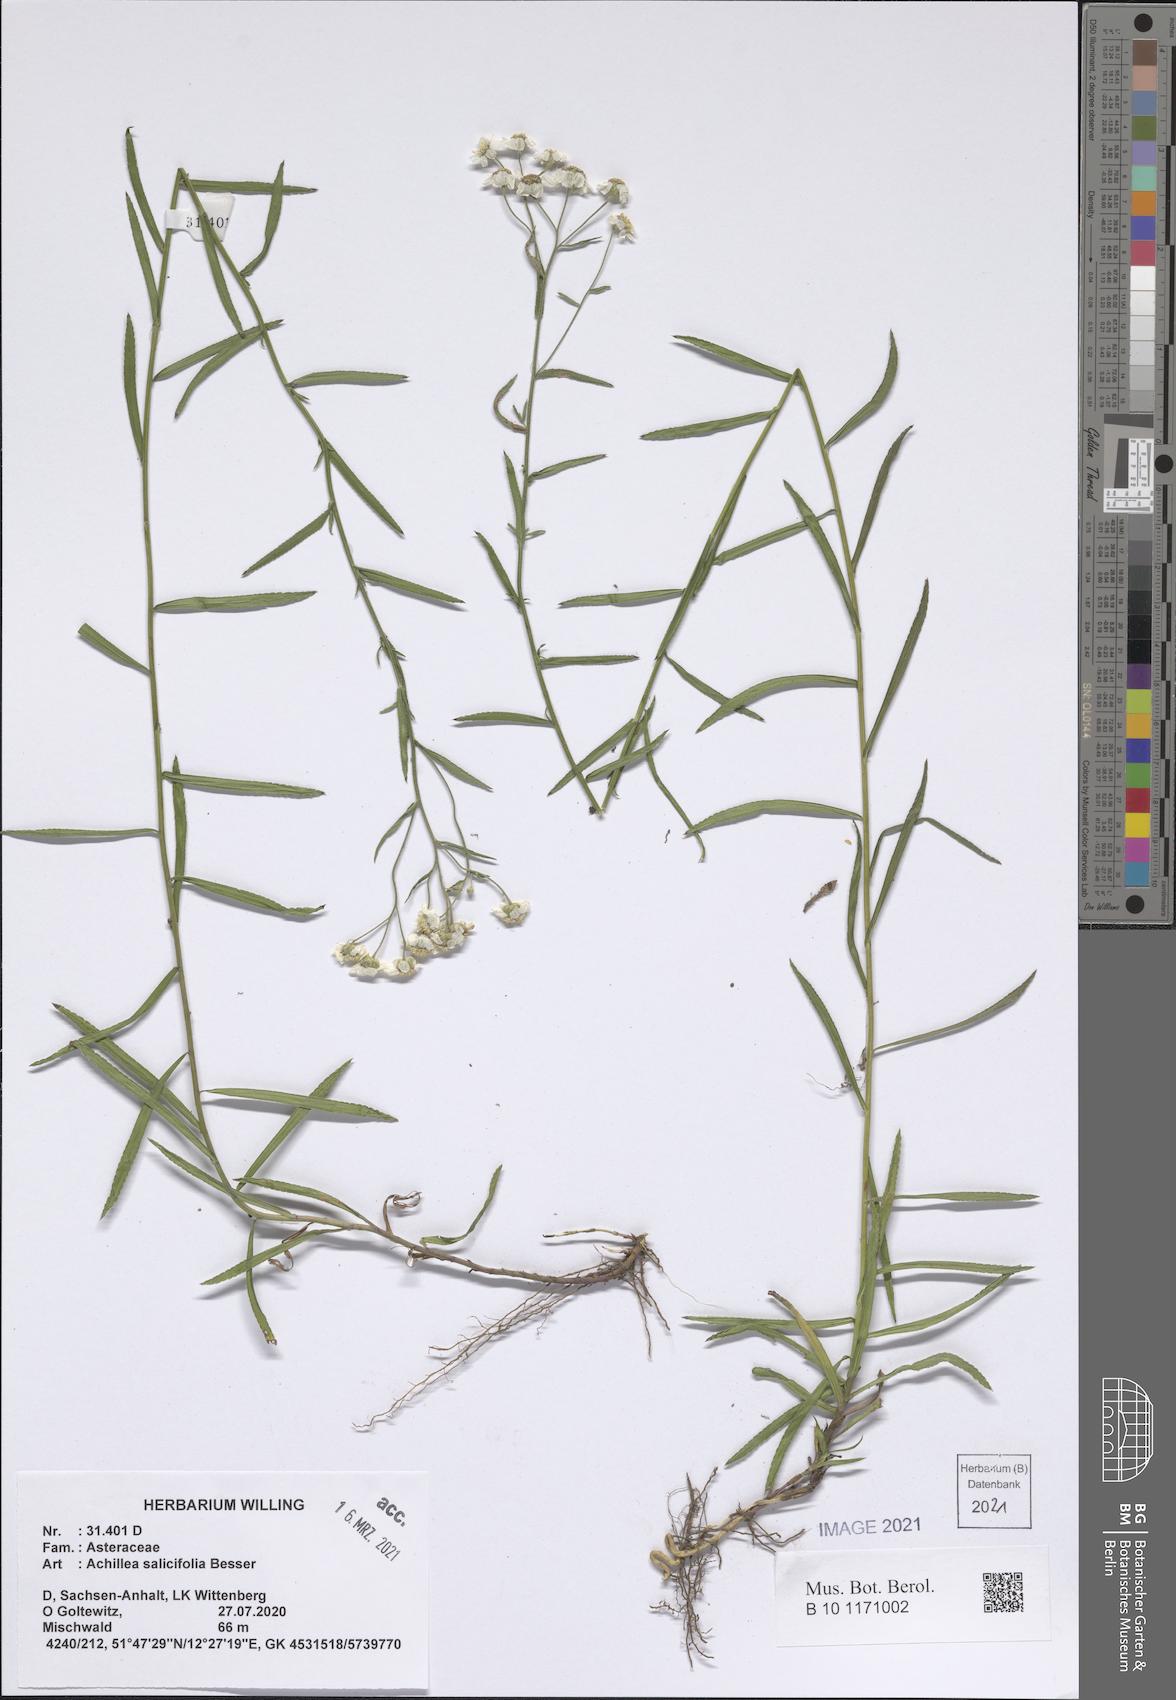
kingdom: Plantae
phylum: Tracheophyta
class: Magnoliopsida
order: Asterales
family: Asteraceae
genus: Achillea
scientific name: Achillea salicifolia
